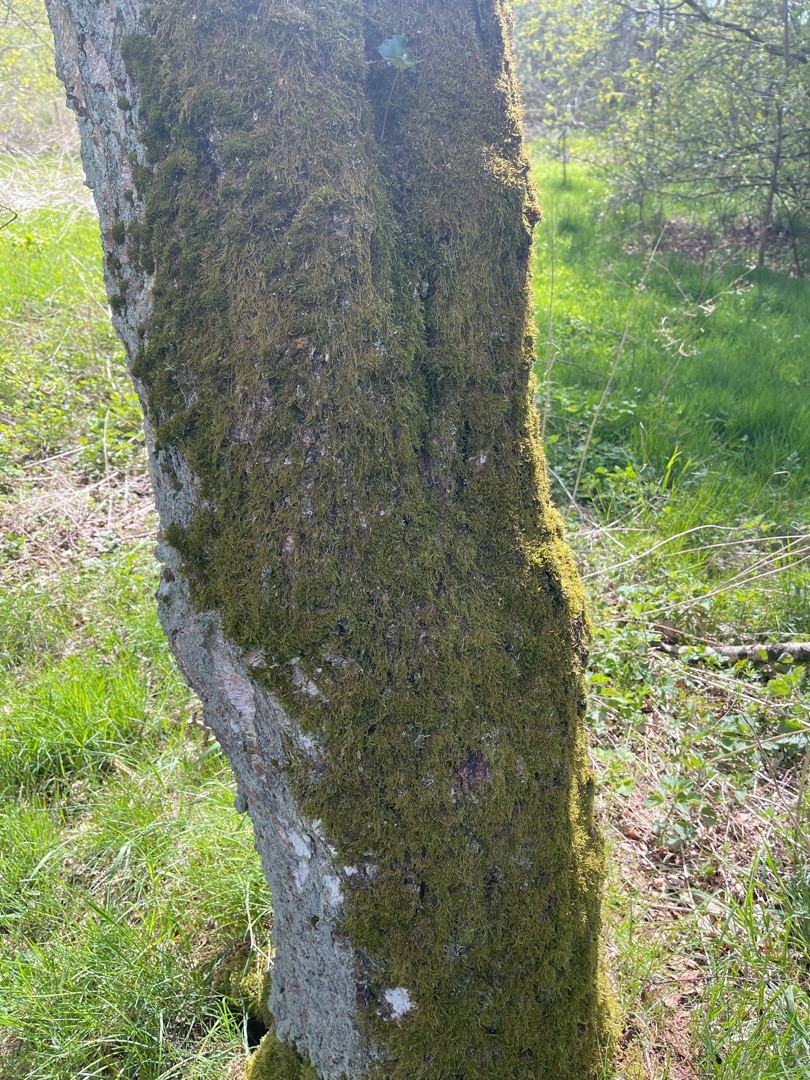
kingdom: Plantae
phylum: Bryophyta
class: Bryopsida
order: Hypnales
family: Hypnaceae
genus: Hypnum
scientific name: Hypnum
